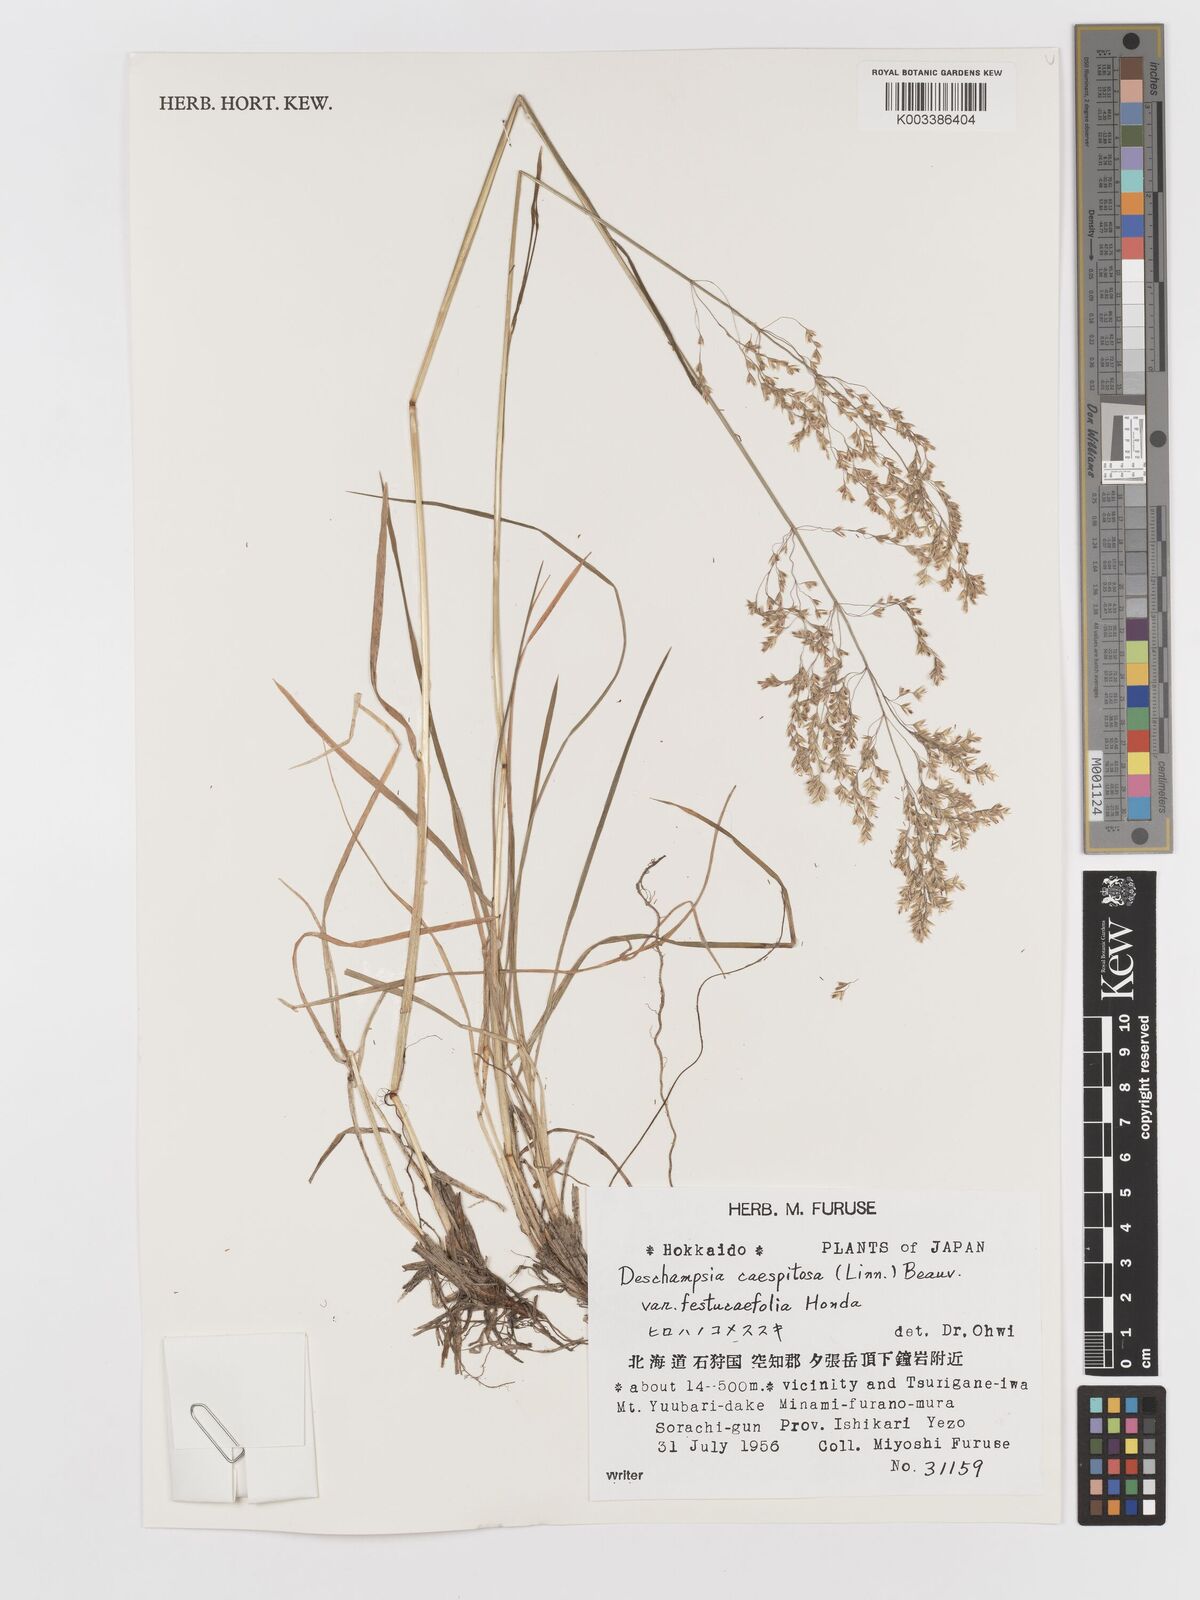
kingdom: Plantae
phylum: Tracheophyta
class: Liliopsida
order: Poales
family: Poaceae
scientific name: Poaceae
